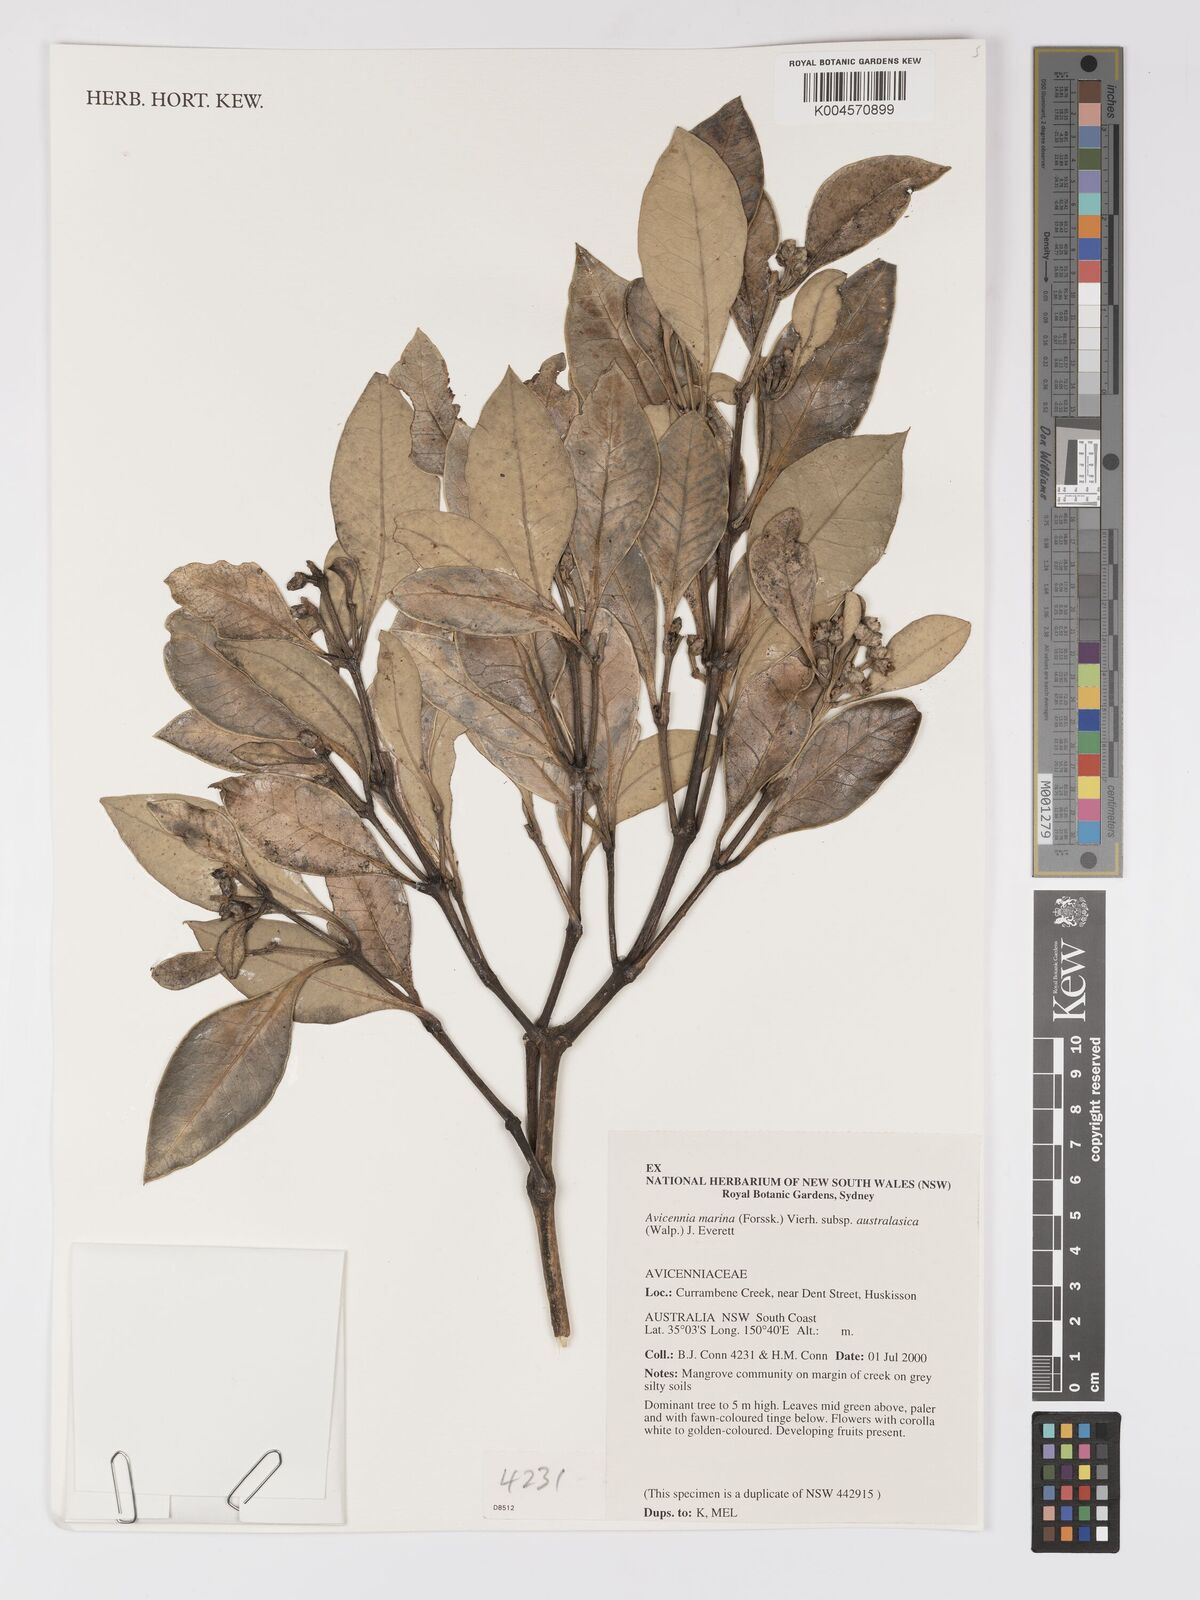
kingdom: Plantae
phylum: Tracheophyta
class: Magnoliopsida
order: Lamiales
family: Acanthaceae
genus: Avicennia
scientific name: Avicennia marina
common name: Gray mangrove
